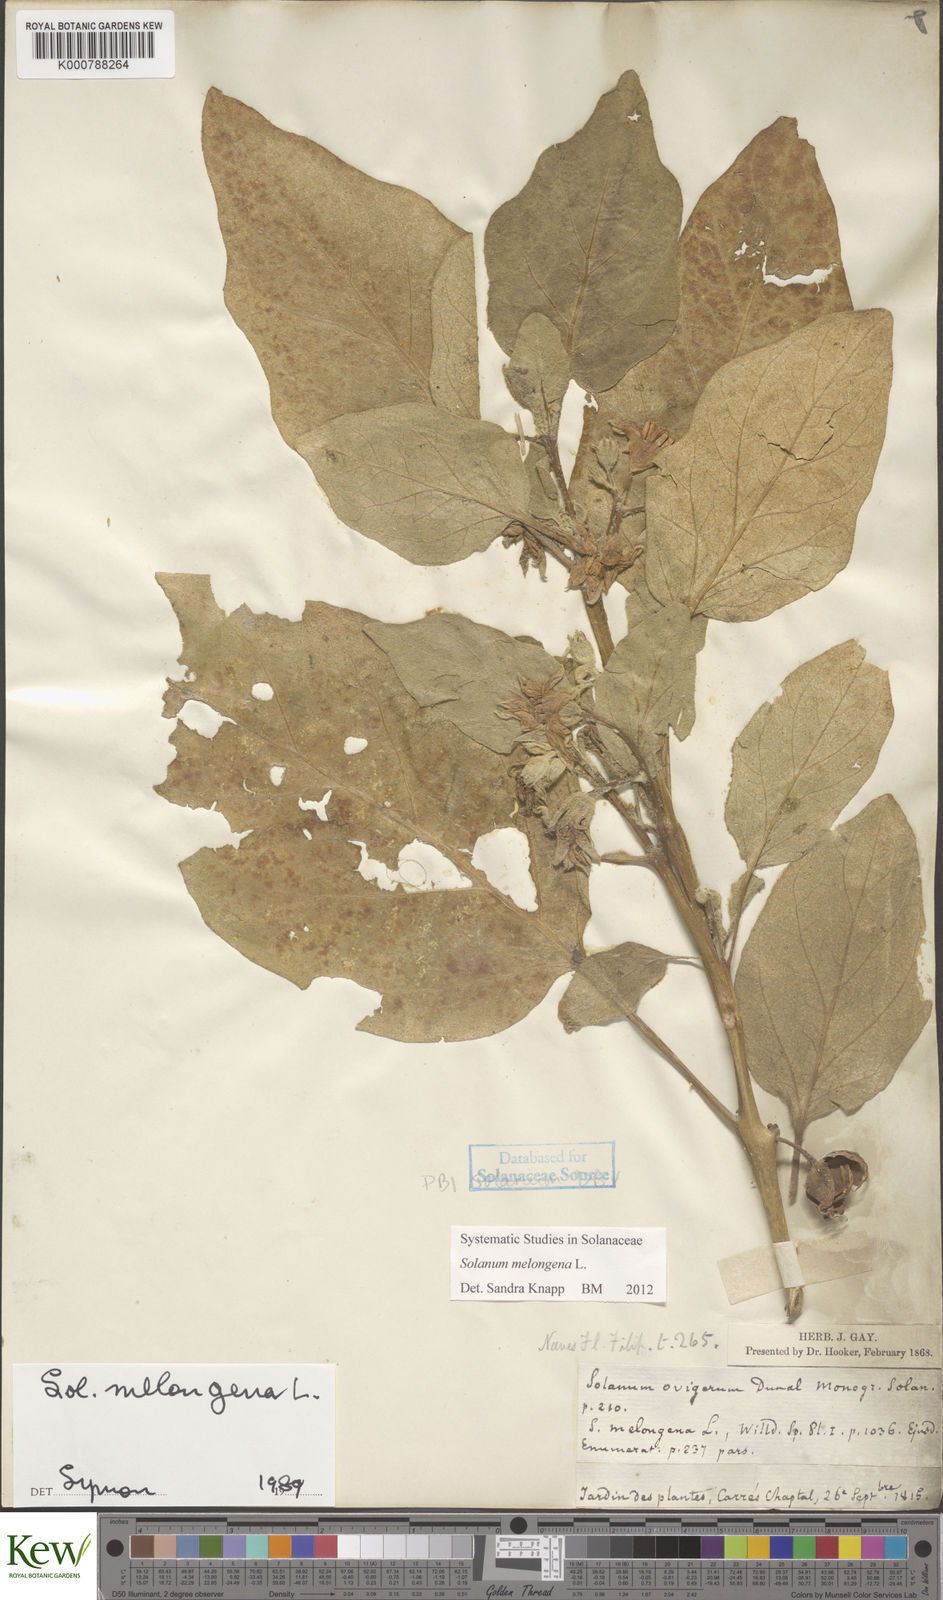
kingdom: Plantae
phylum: Tracheophyta
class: Magnoliopsida
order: Solanales
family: Solanaceae
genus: Solanum
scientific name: Solanum melongena
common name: Eggplant
